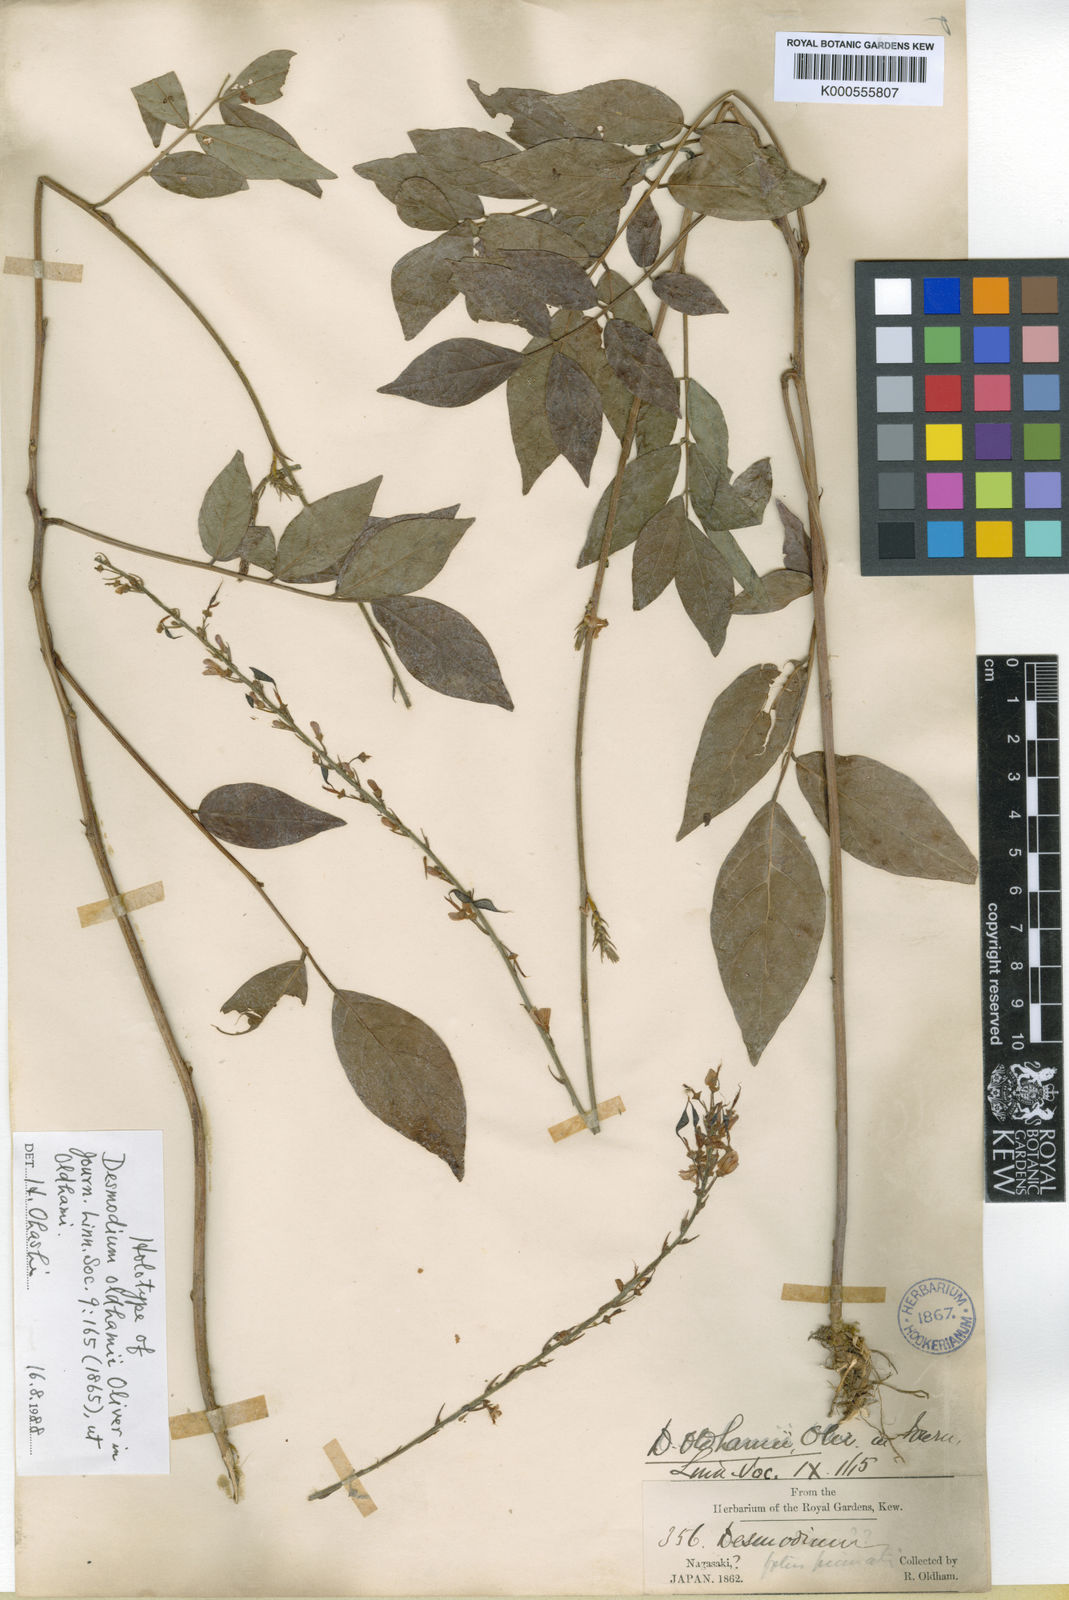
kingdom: Plantae
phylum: Tracheophyta
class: Magnoliopsida
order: Fabales
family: Fabaceae
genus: Hylodesmum
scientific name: Hylodesmum oldhamii
